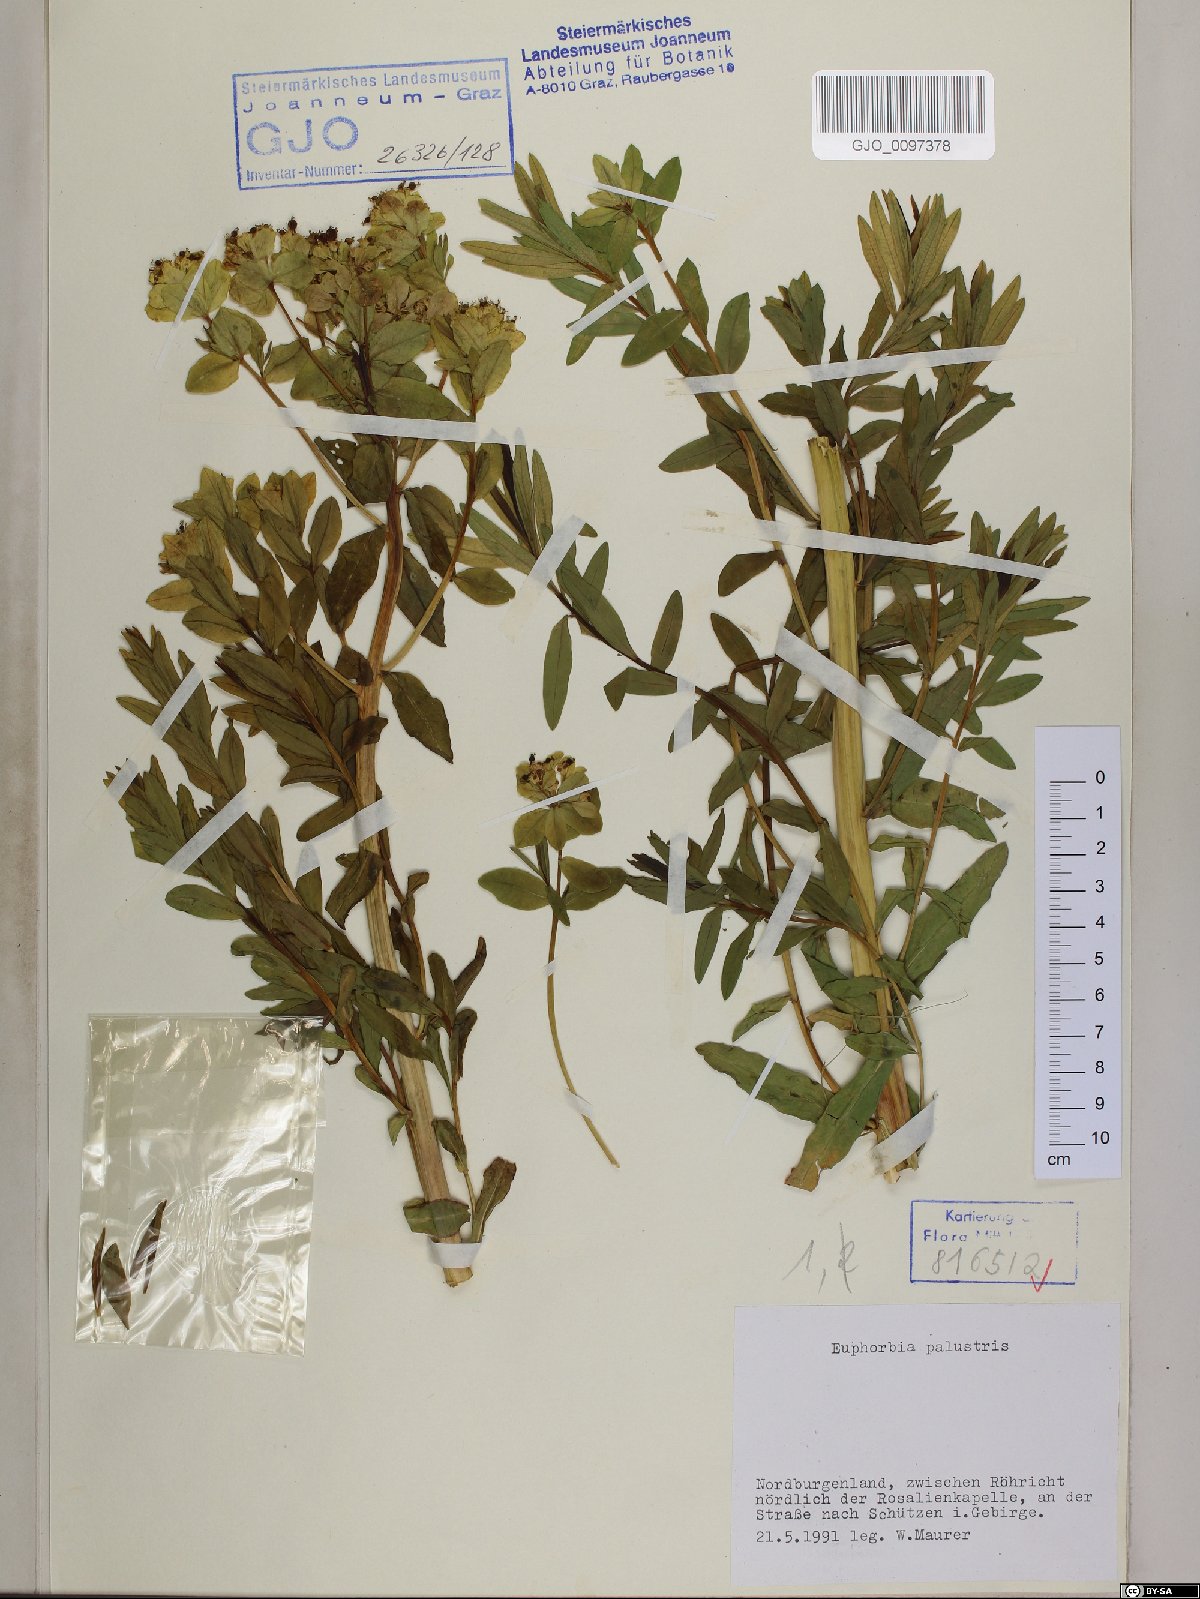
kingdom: Plantae
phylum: Tracheophyta
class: Magnoliopsida
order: Malpighiales
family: Euphorbiaceae
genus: Euphorbia
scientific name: Euphorbia palustris
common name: Marsh spurge
